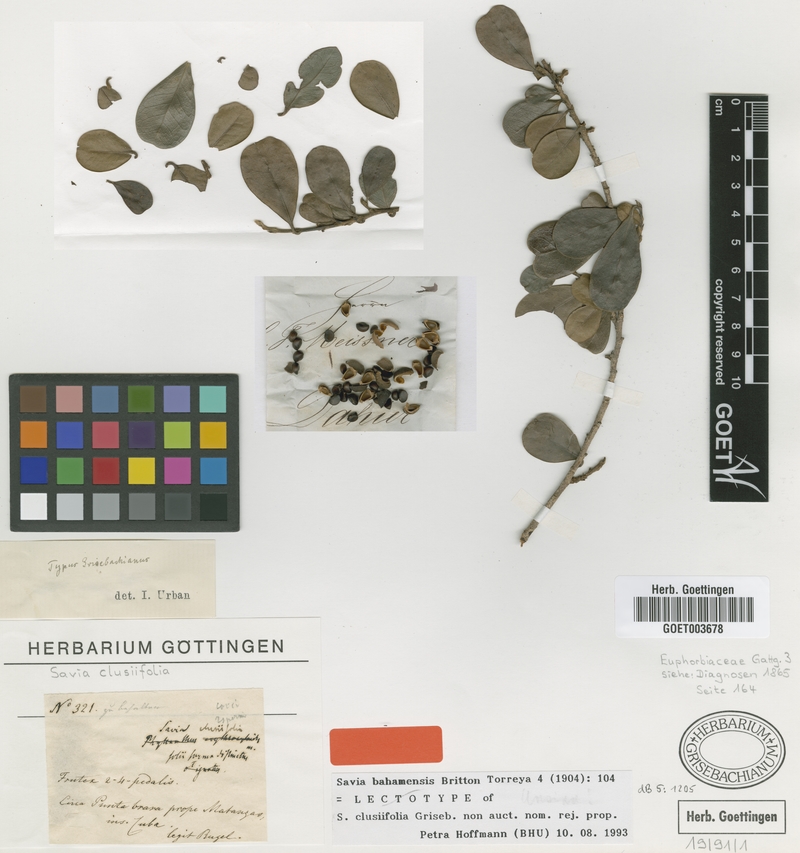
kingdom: Plantae
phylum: Tracheophyta
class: Magnoliopsida
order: Malpighiales
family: Phyllanthaceae
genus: Heterosavia
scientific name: Heterosavia bahamensis
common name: Bahama maidenbush
